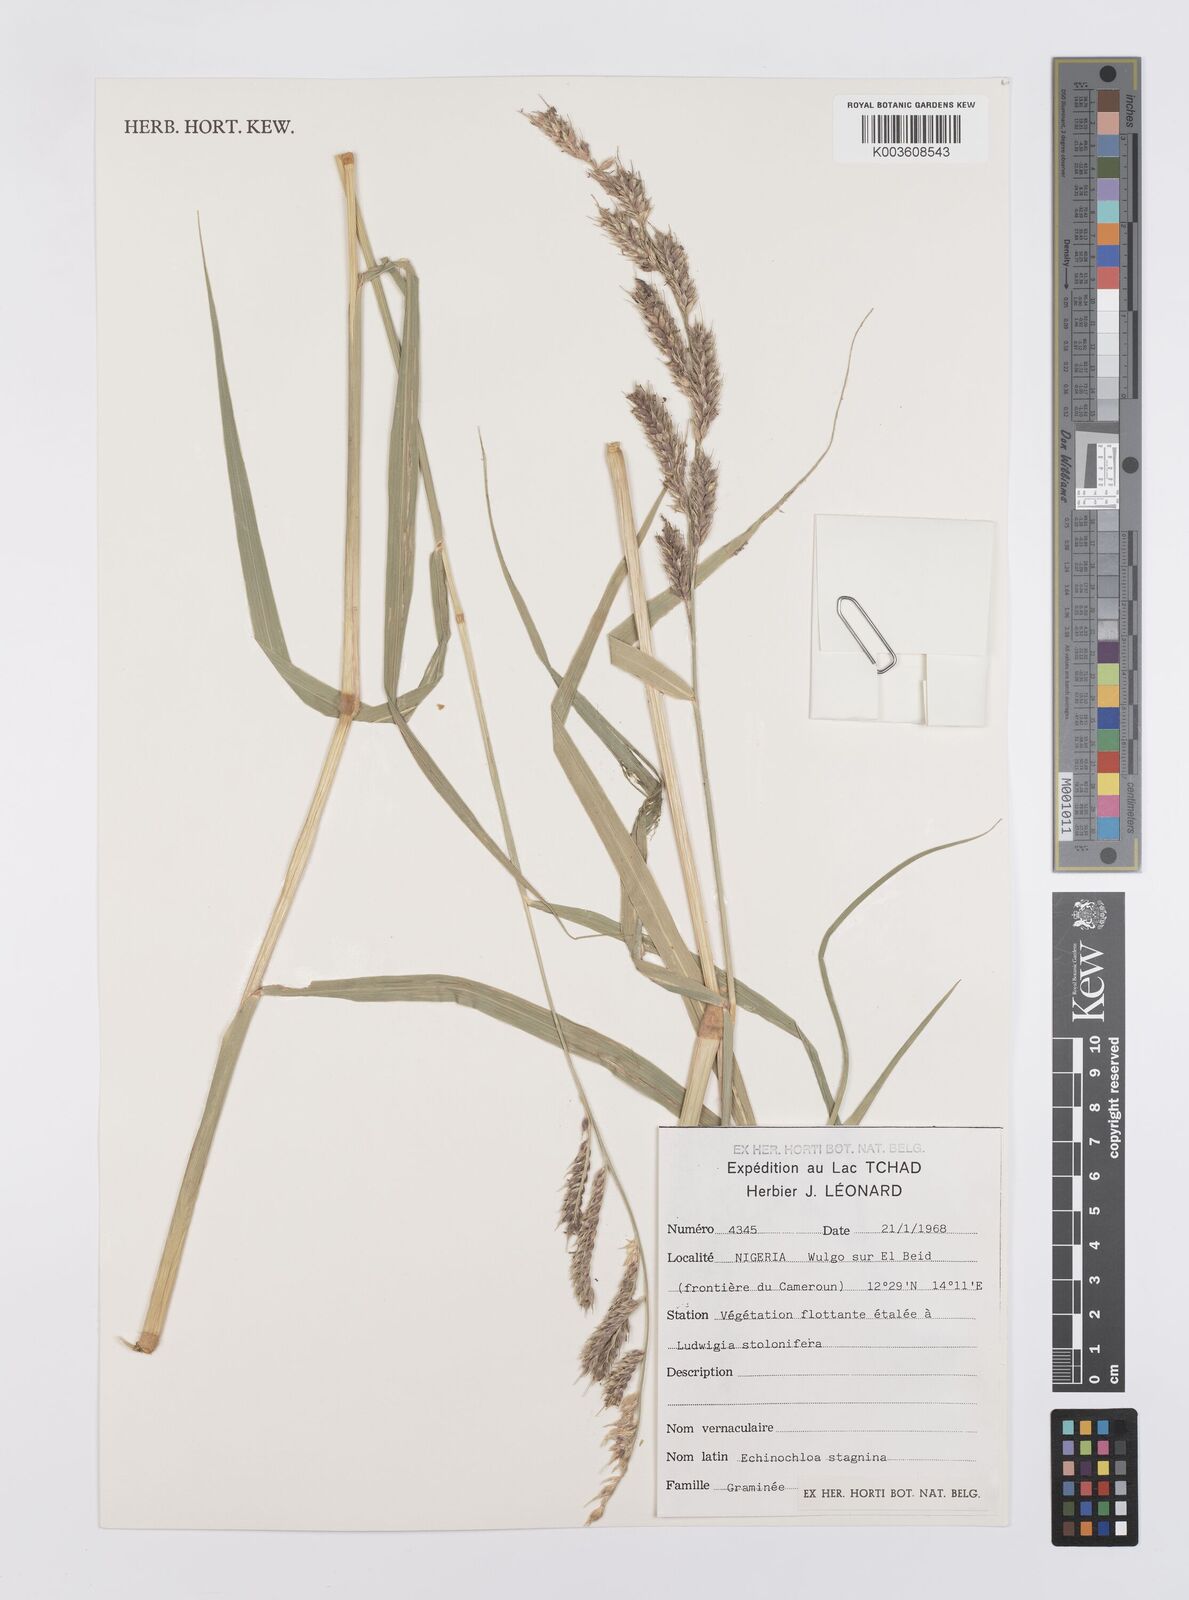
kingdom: Plantae
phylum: Tracheophyta
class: Liliopsida
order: Poales
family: Poaceae
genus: Echinochloa
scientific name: Echinochloa stagnina
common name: Burgu grass
